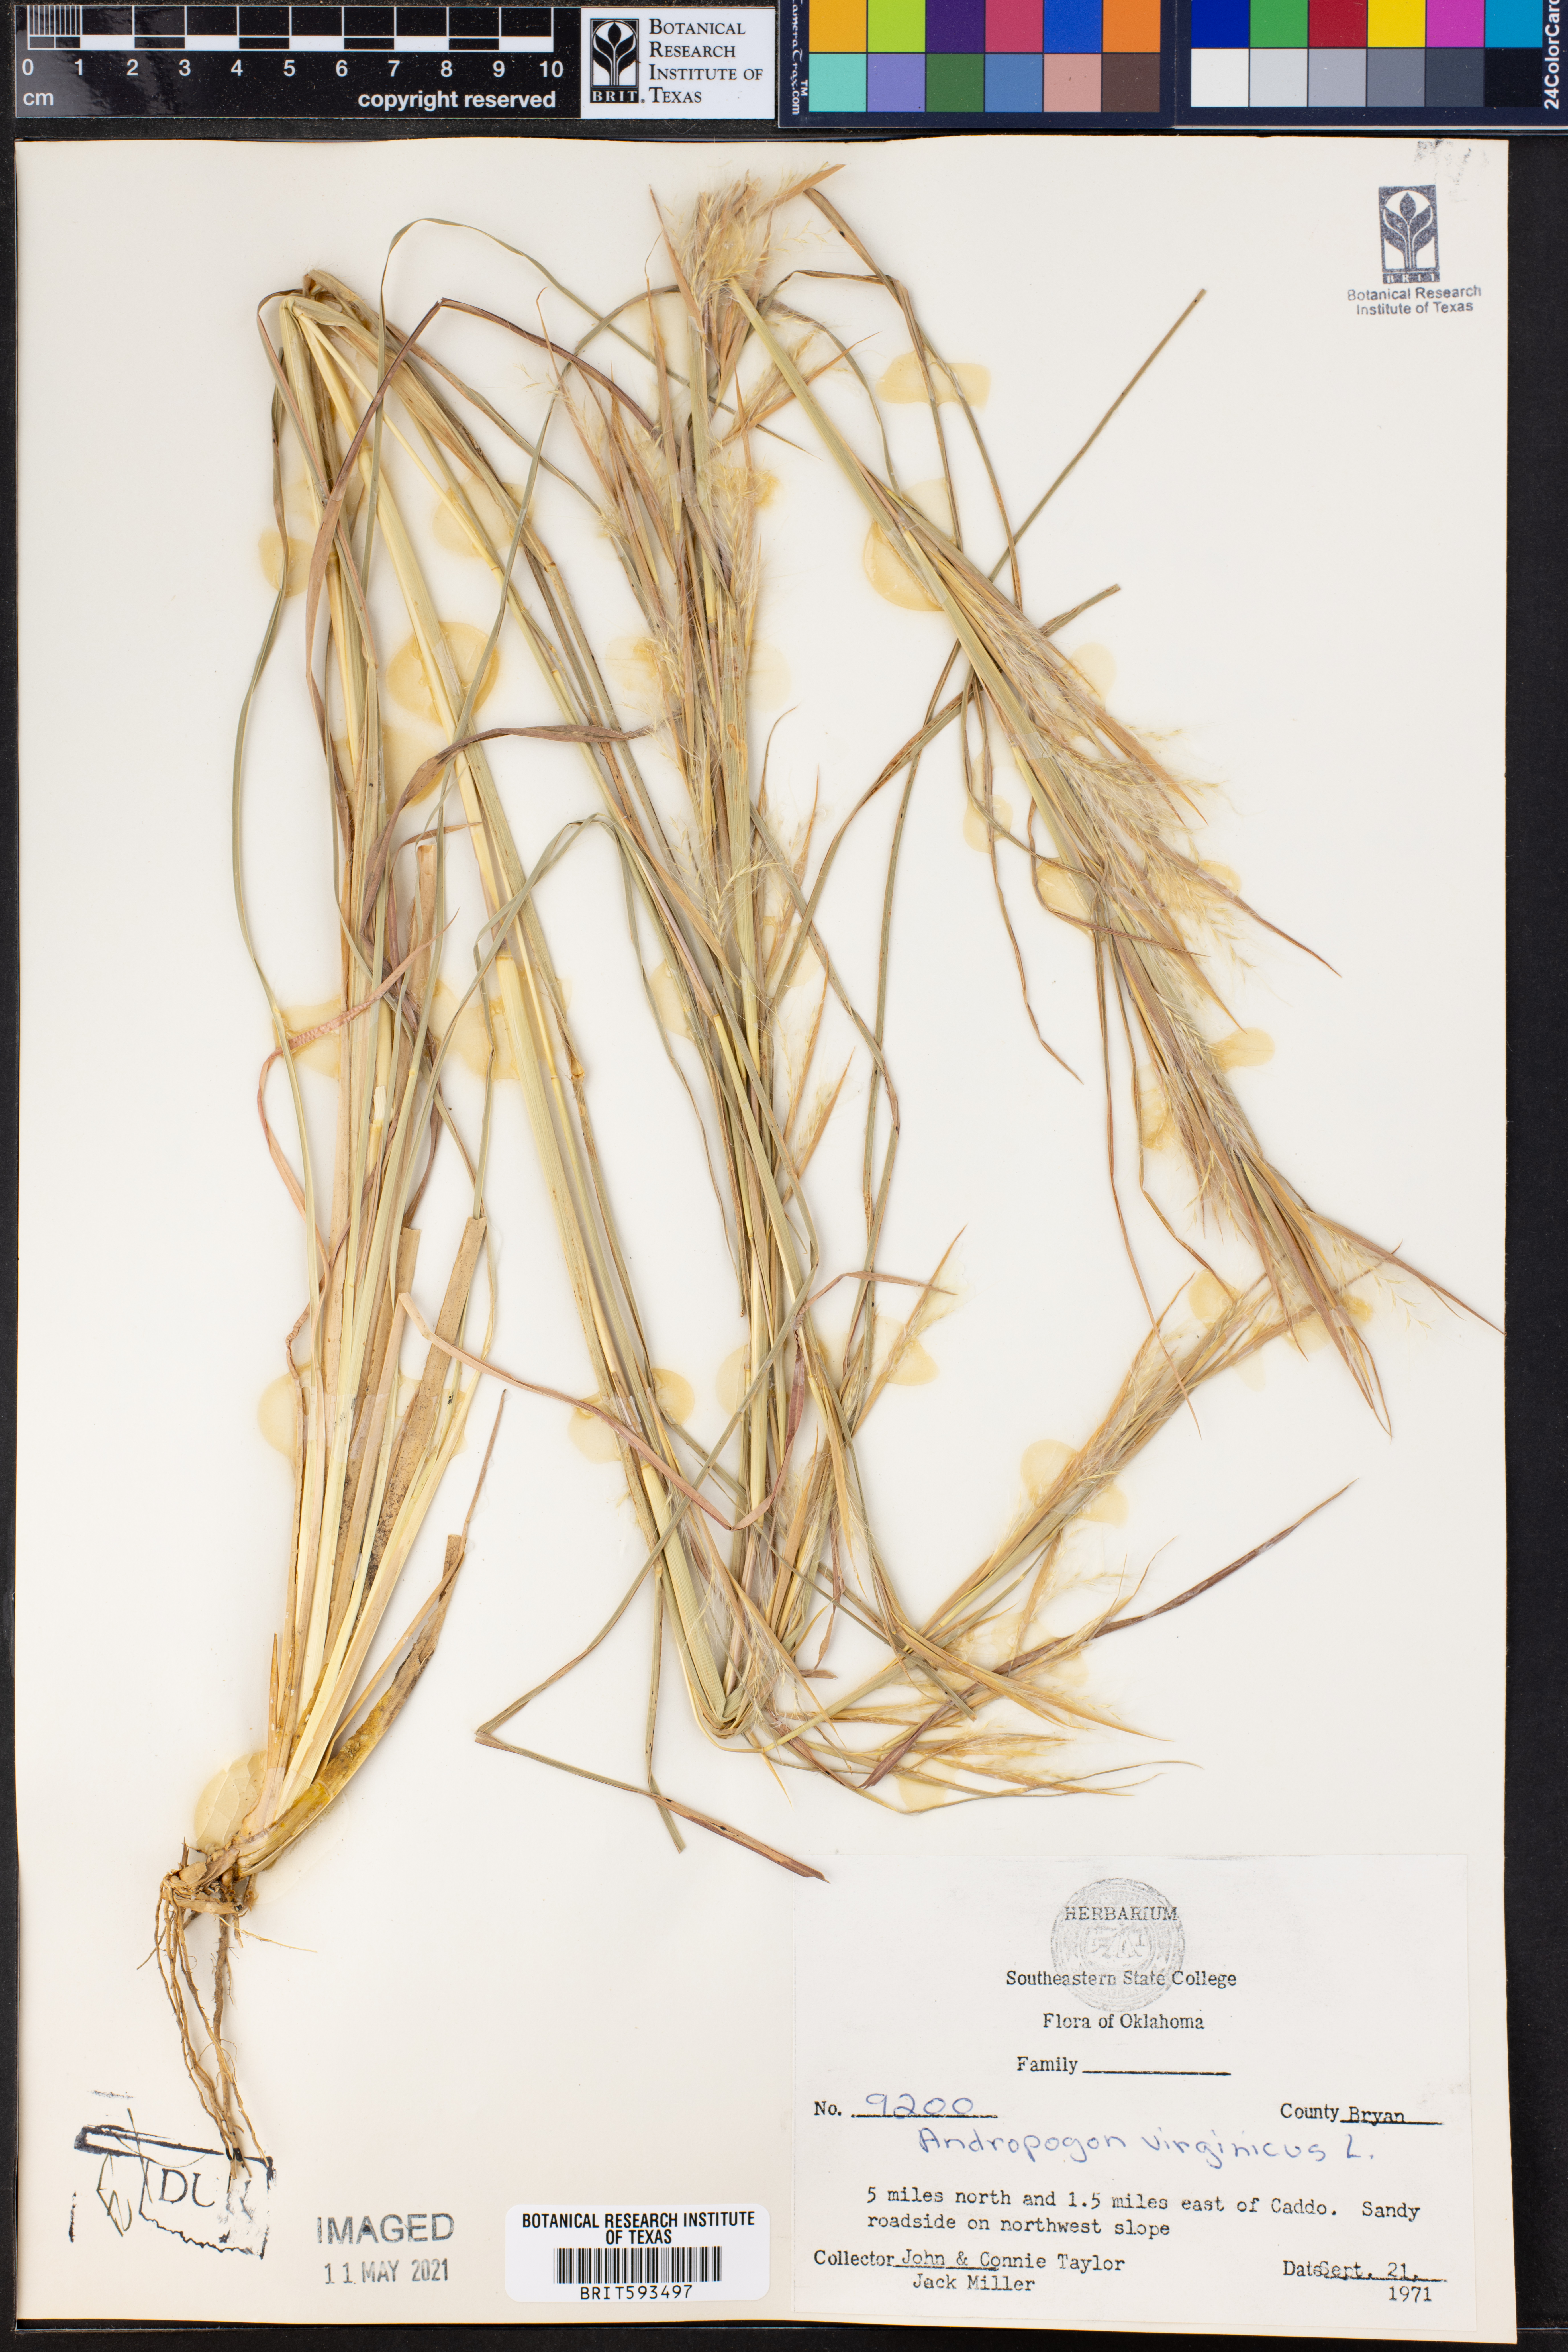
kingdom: Plantae
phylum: Tracheophyta
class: Liliopsida
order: Poales
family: Poaceae
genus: Andropogon
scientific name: Andropogon virginicus
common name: Broomsedge bluestem
